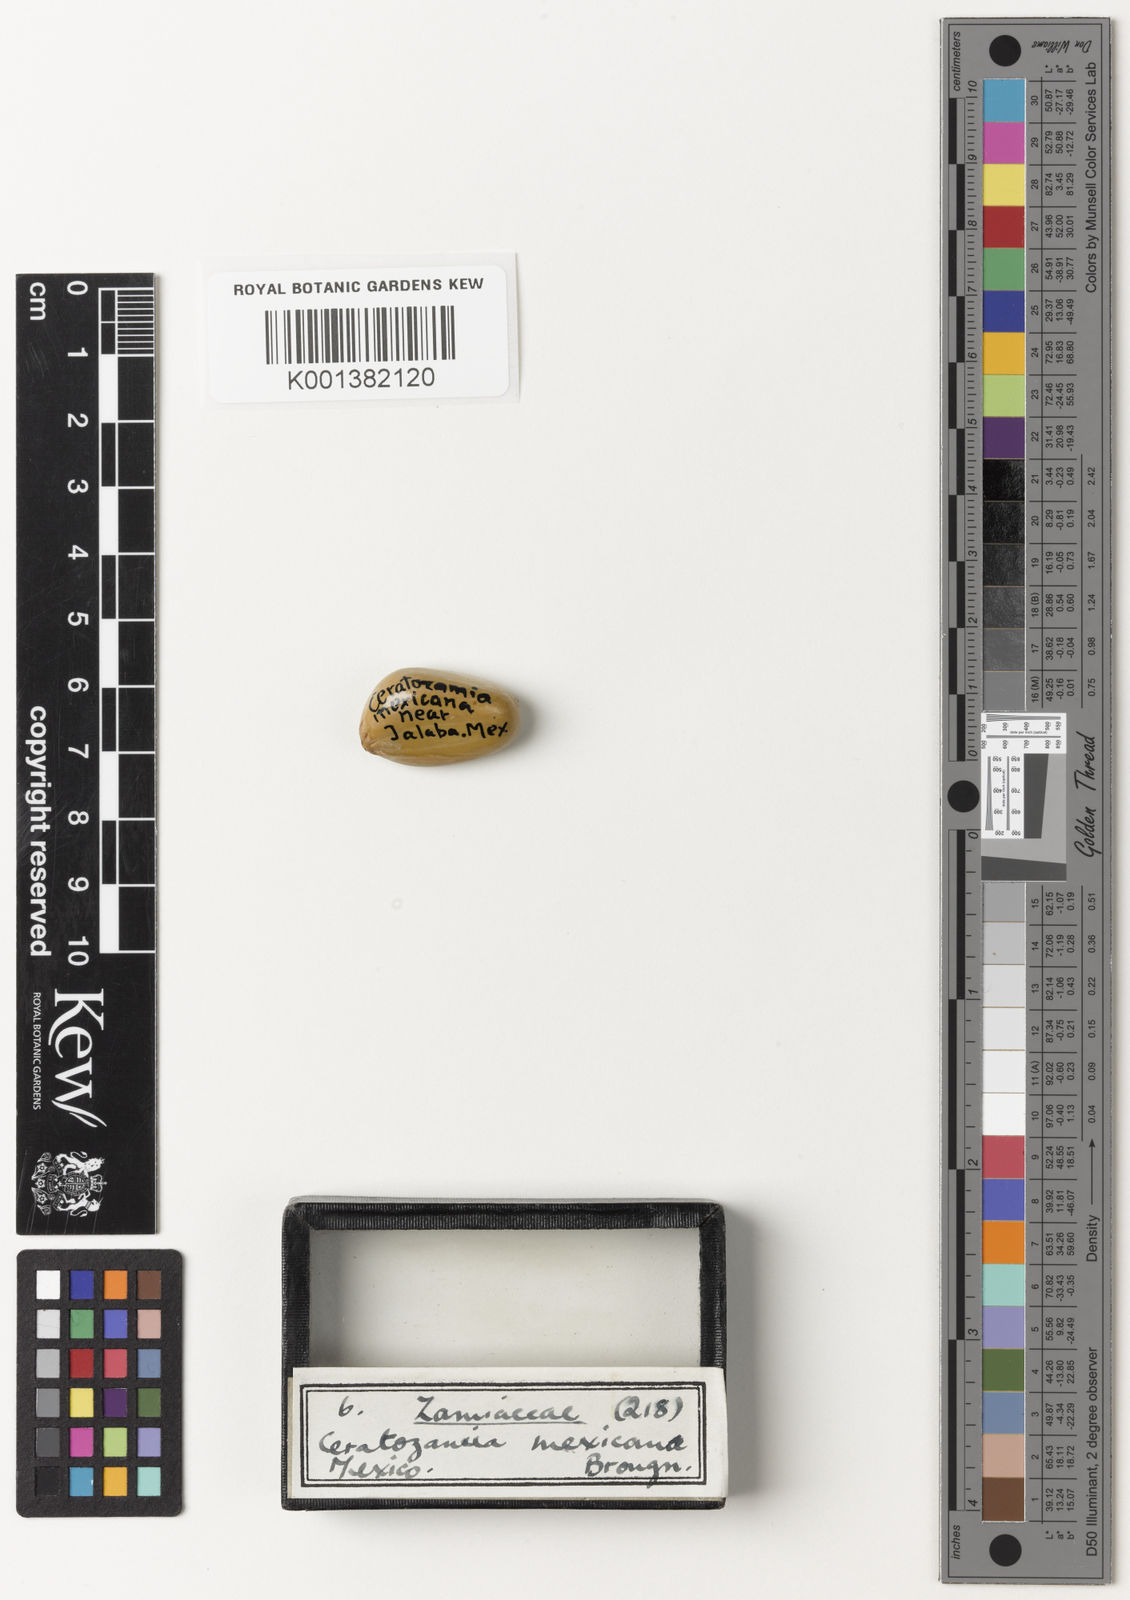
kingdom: Plantae
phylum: Tracheophyta
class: Cycadopsida
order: Cycadales
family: Zamiaceae
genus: Ceratozamia
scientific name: Ceratozamia mexicana
